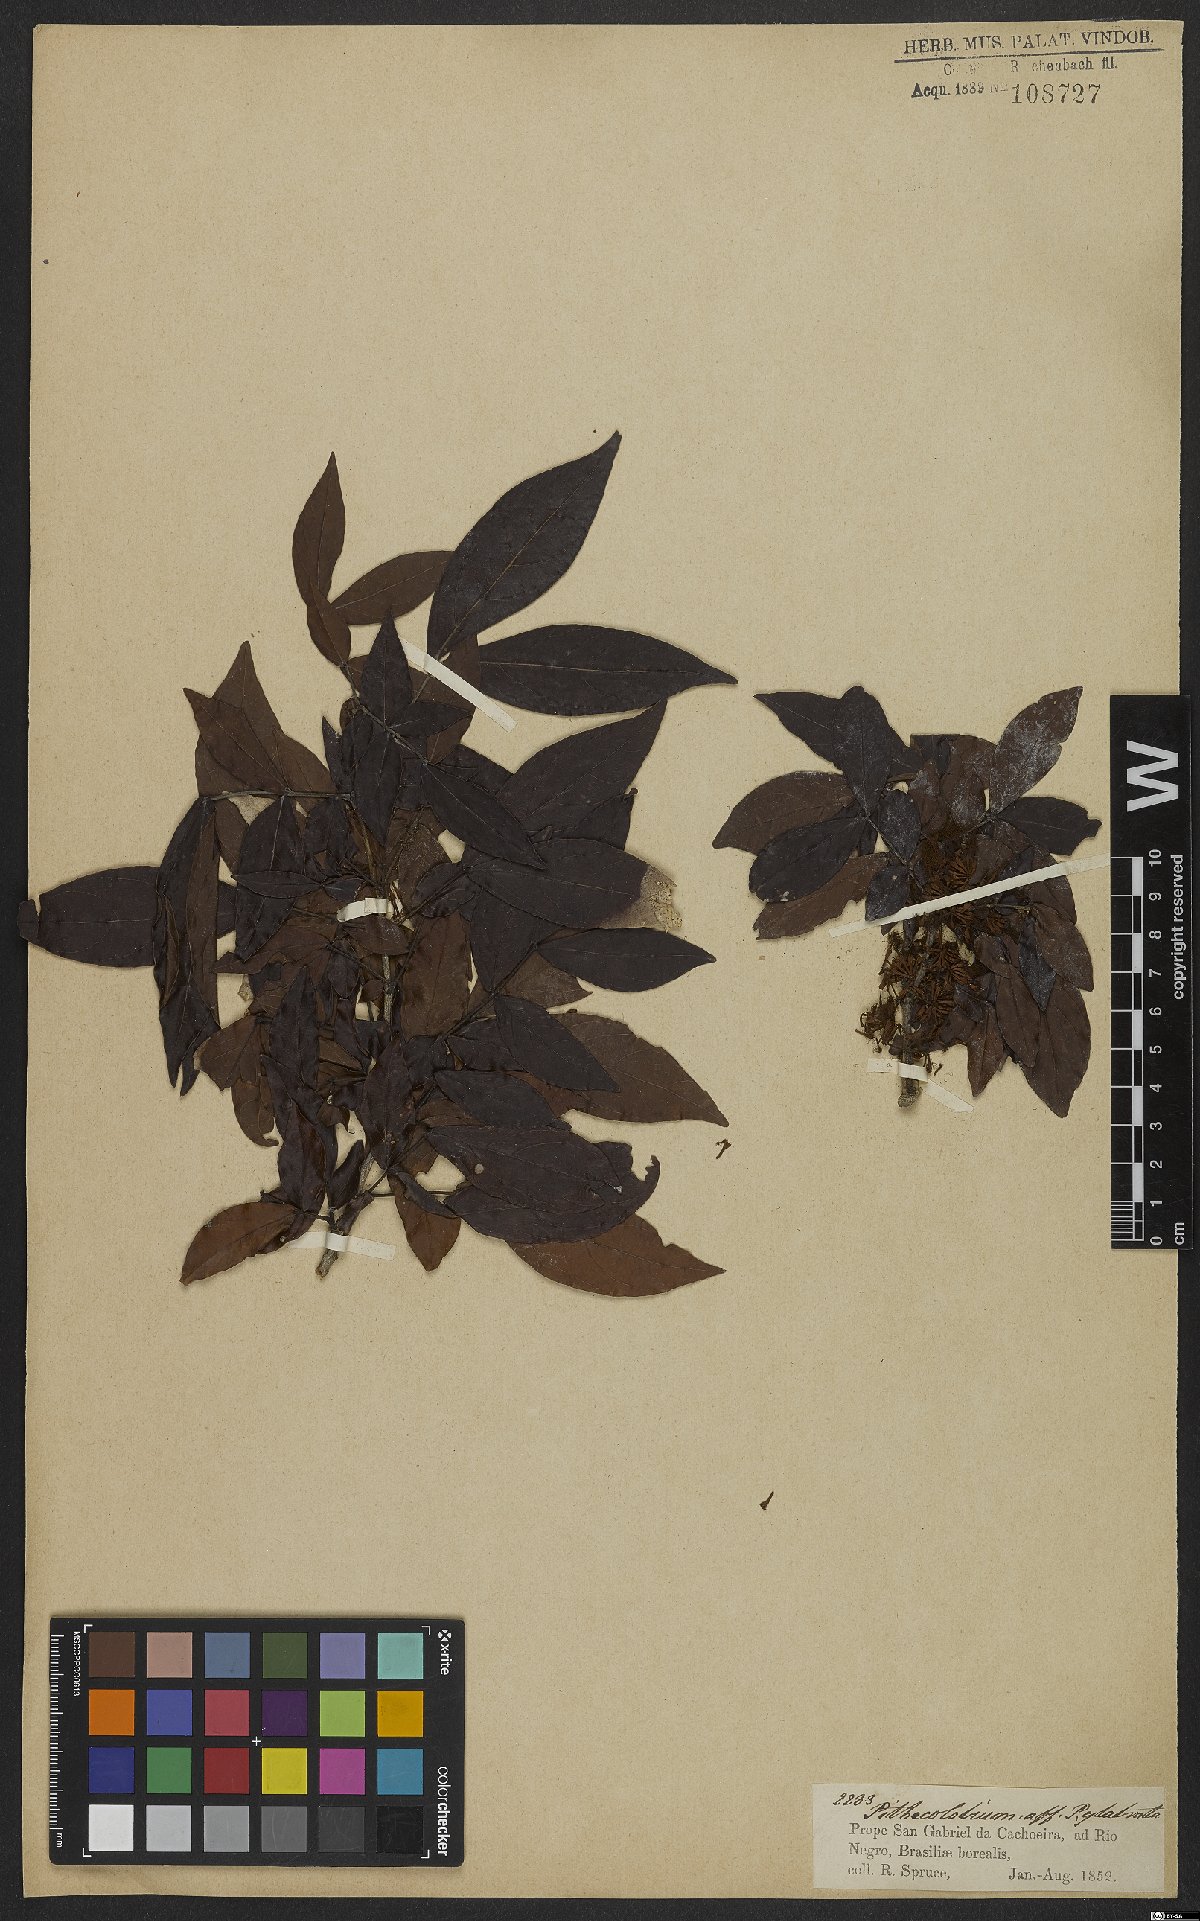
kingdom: Plantae
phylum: Tracheophyta
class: Magnoliopsida
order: Fabales
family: Fabaceae
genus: Zygia
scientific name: Zygia inaequalis
